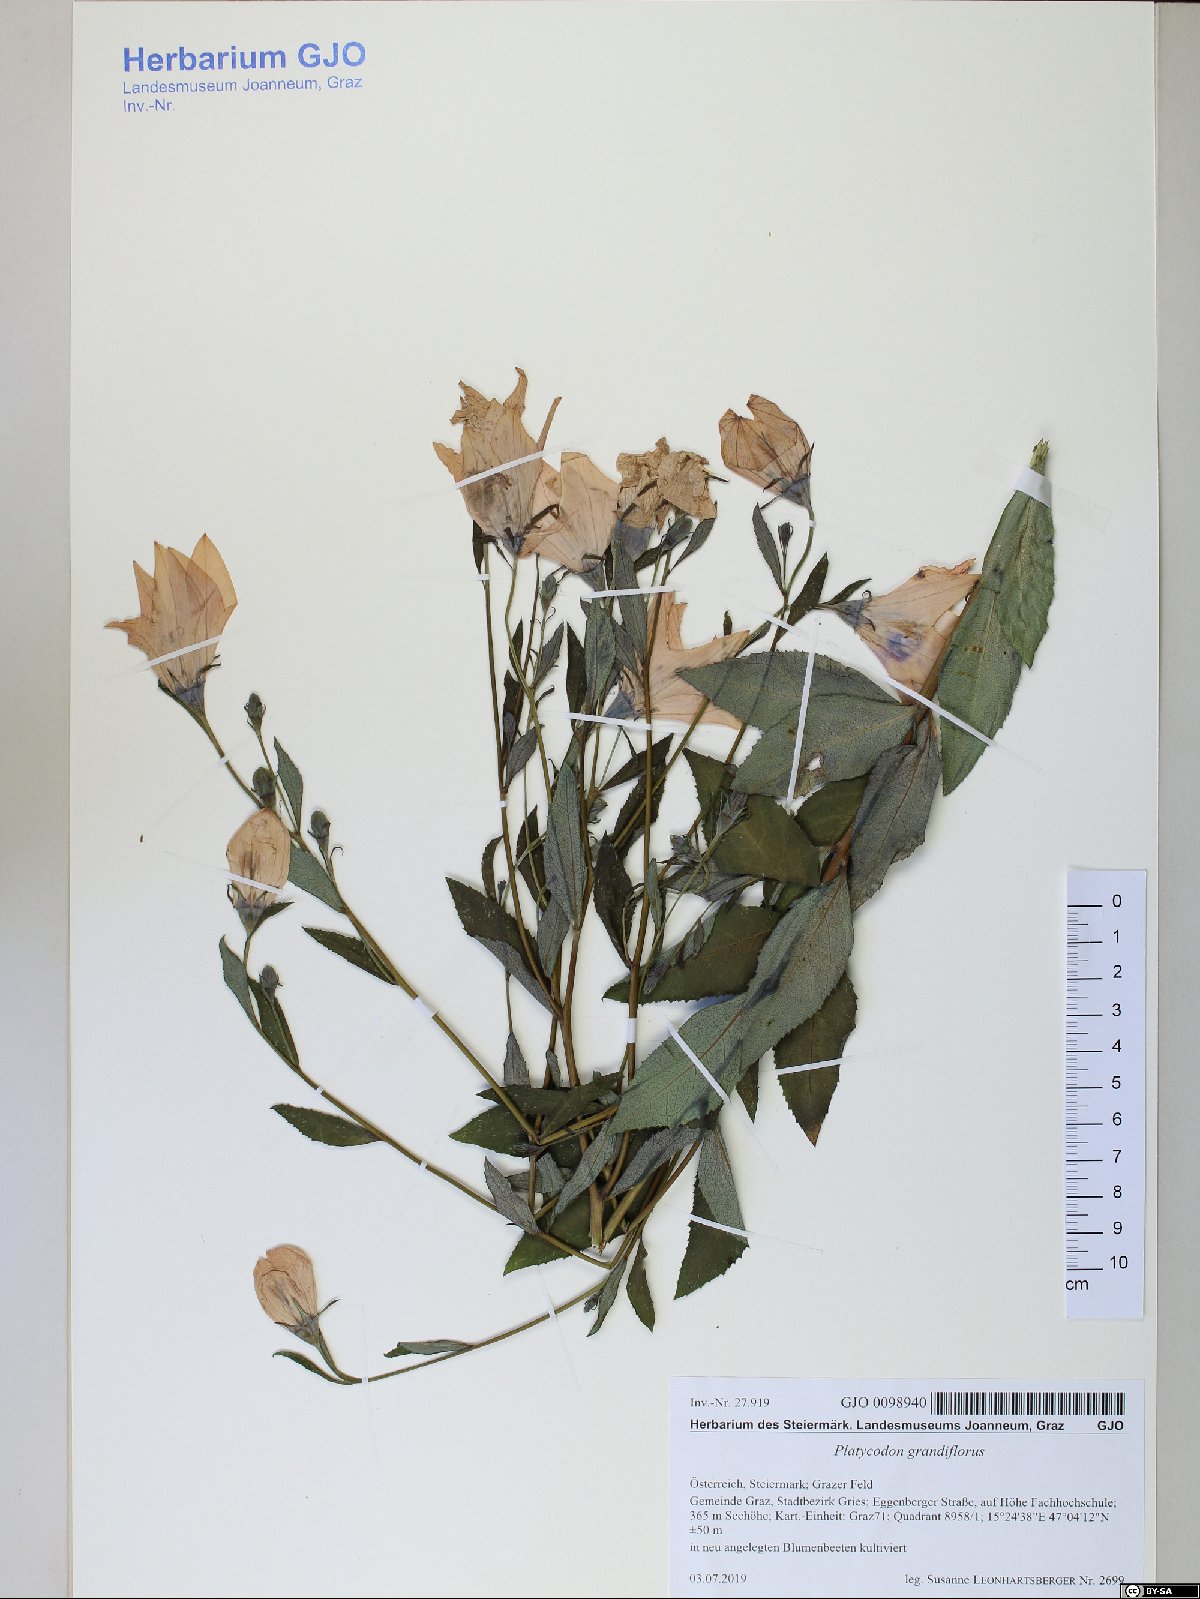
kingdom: Plantae
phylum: Tracheophyta
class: Magnoliopsida
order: Asterales
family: Campanulaceae
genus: Platycodon
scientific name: Platycodon grandiflorus
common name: Balloon-flower
